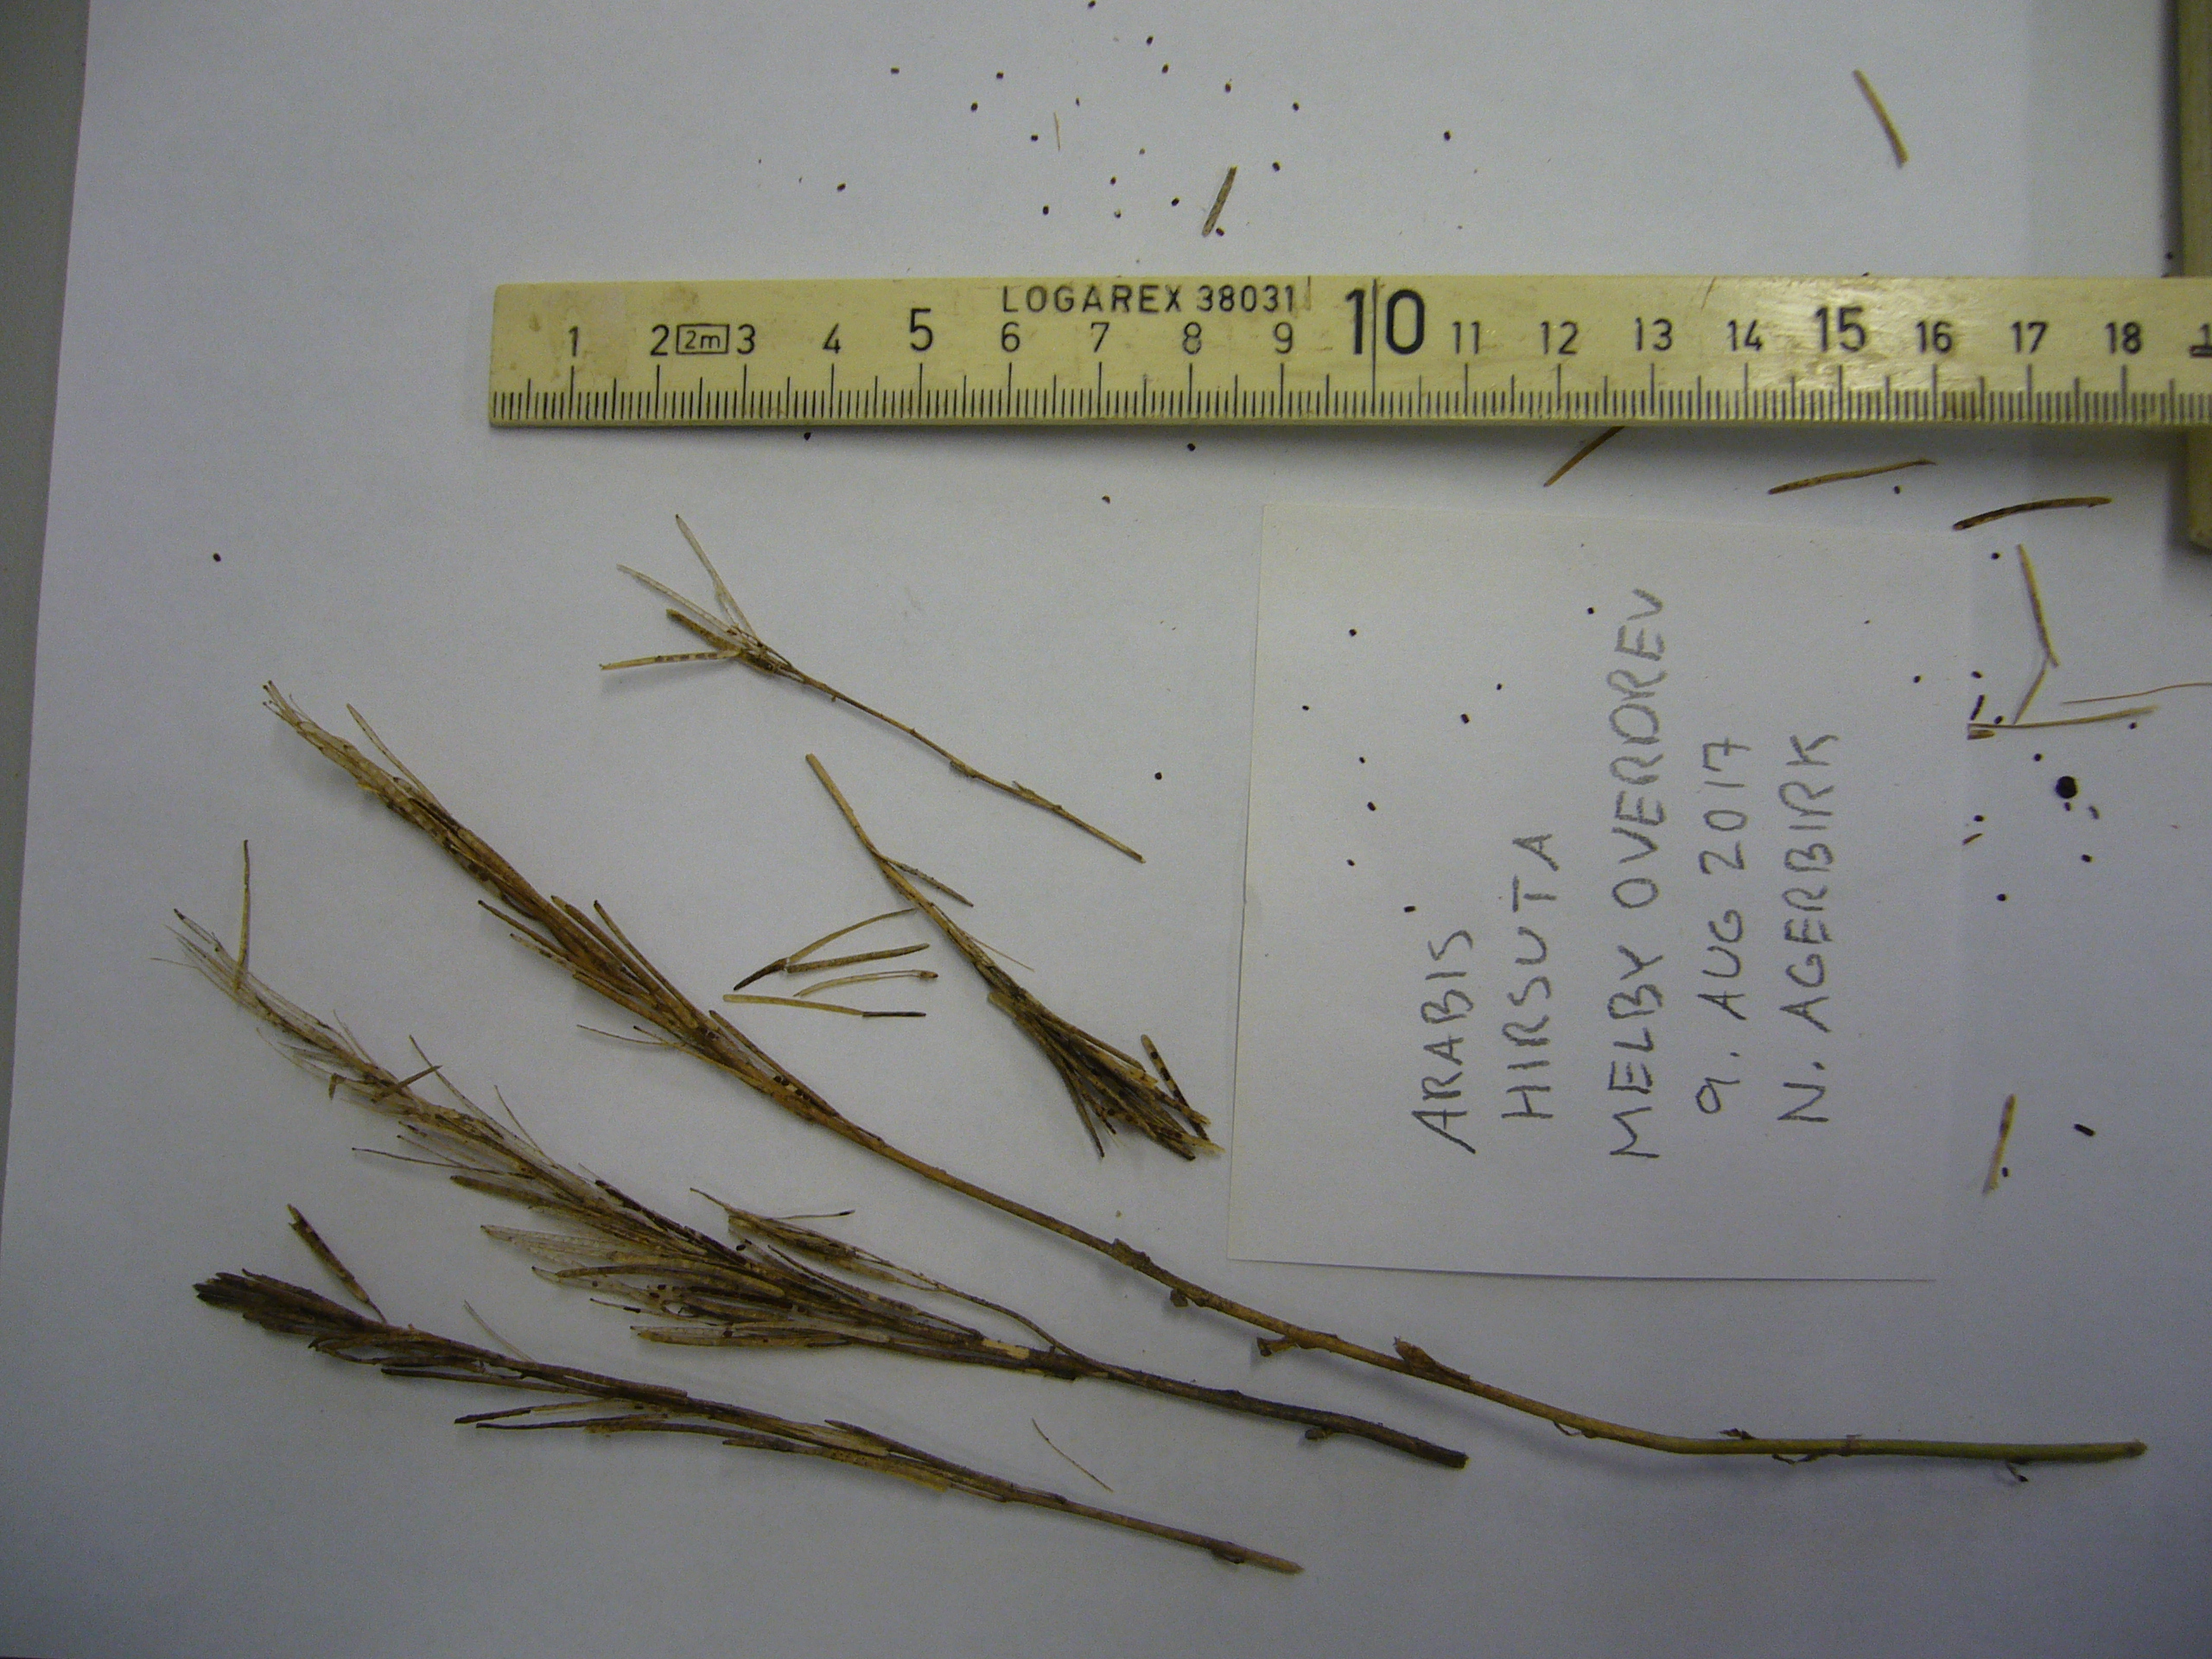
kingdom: Plantae
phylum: Tracheophyta
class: Magnoliopsida
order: Brassicales
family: Brassicaceae
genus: Arabis
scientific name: Arabis hirsuta
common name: Hairy rock-cress
